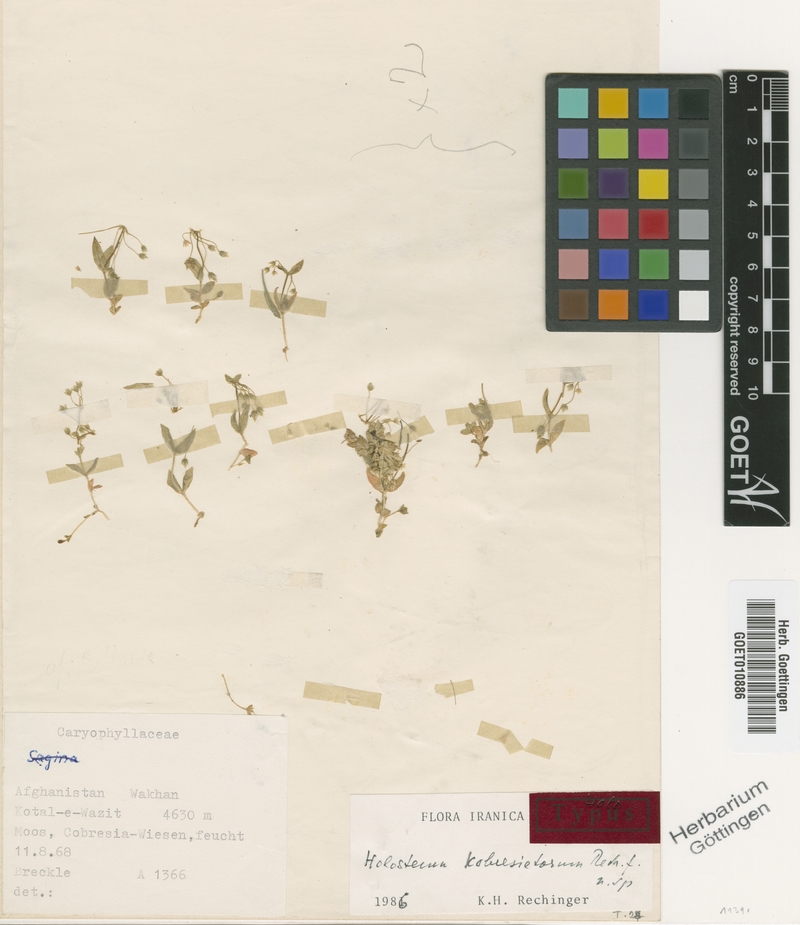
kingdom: Plantae
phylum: Tracheophyta
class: Magnoliopsida
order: Caryophyllales
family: Caryophyllaceae
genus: Holosteum
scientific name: Holosteum kobresietorum
